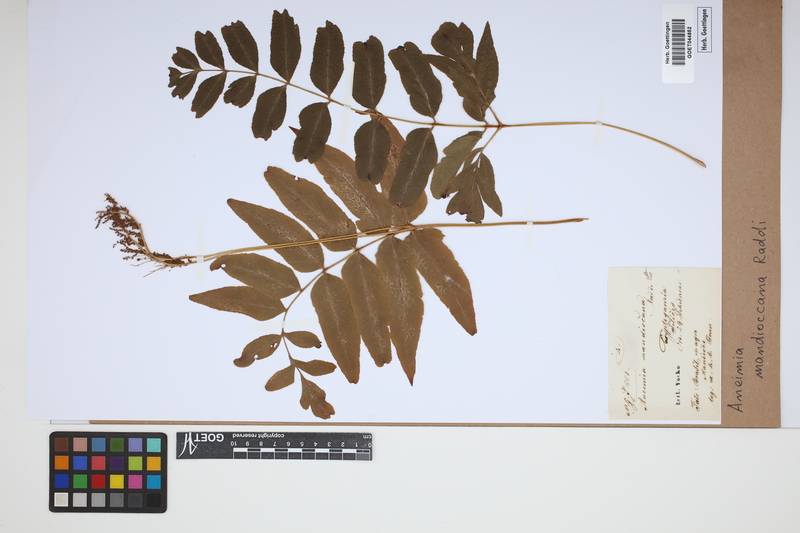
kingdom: Plantae
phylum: Tracheophyta
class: Polypodiopsida
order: Schizaeales
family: Anemiaceae
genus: Anemia
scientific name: Anemia mandiocana
